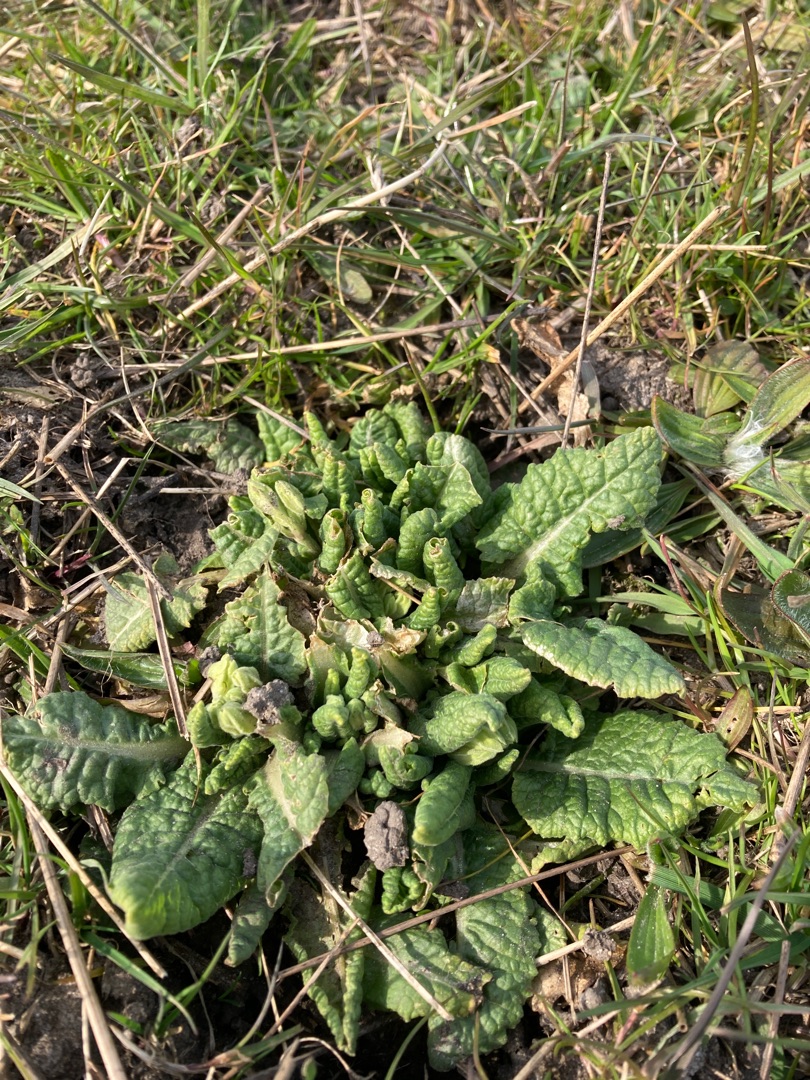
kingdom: Plantae
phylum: Tracheophyta
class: Magnoliopsida
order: Ericales
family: Primulaceae
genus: Primula
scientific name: Primula veris
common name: Hulkravet kodriver
